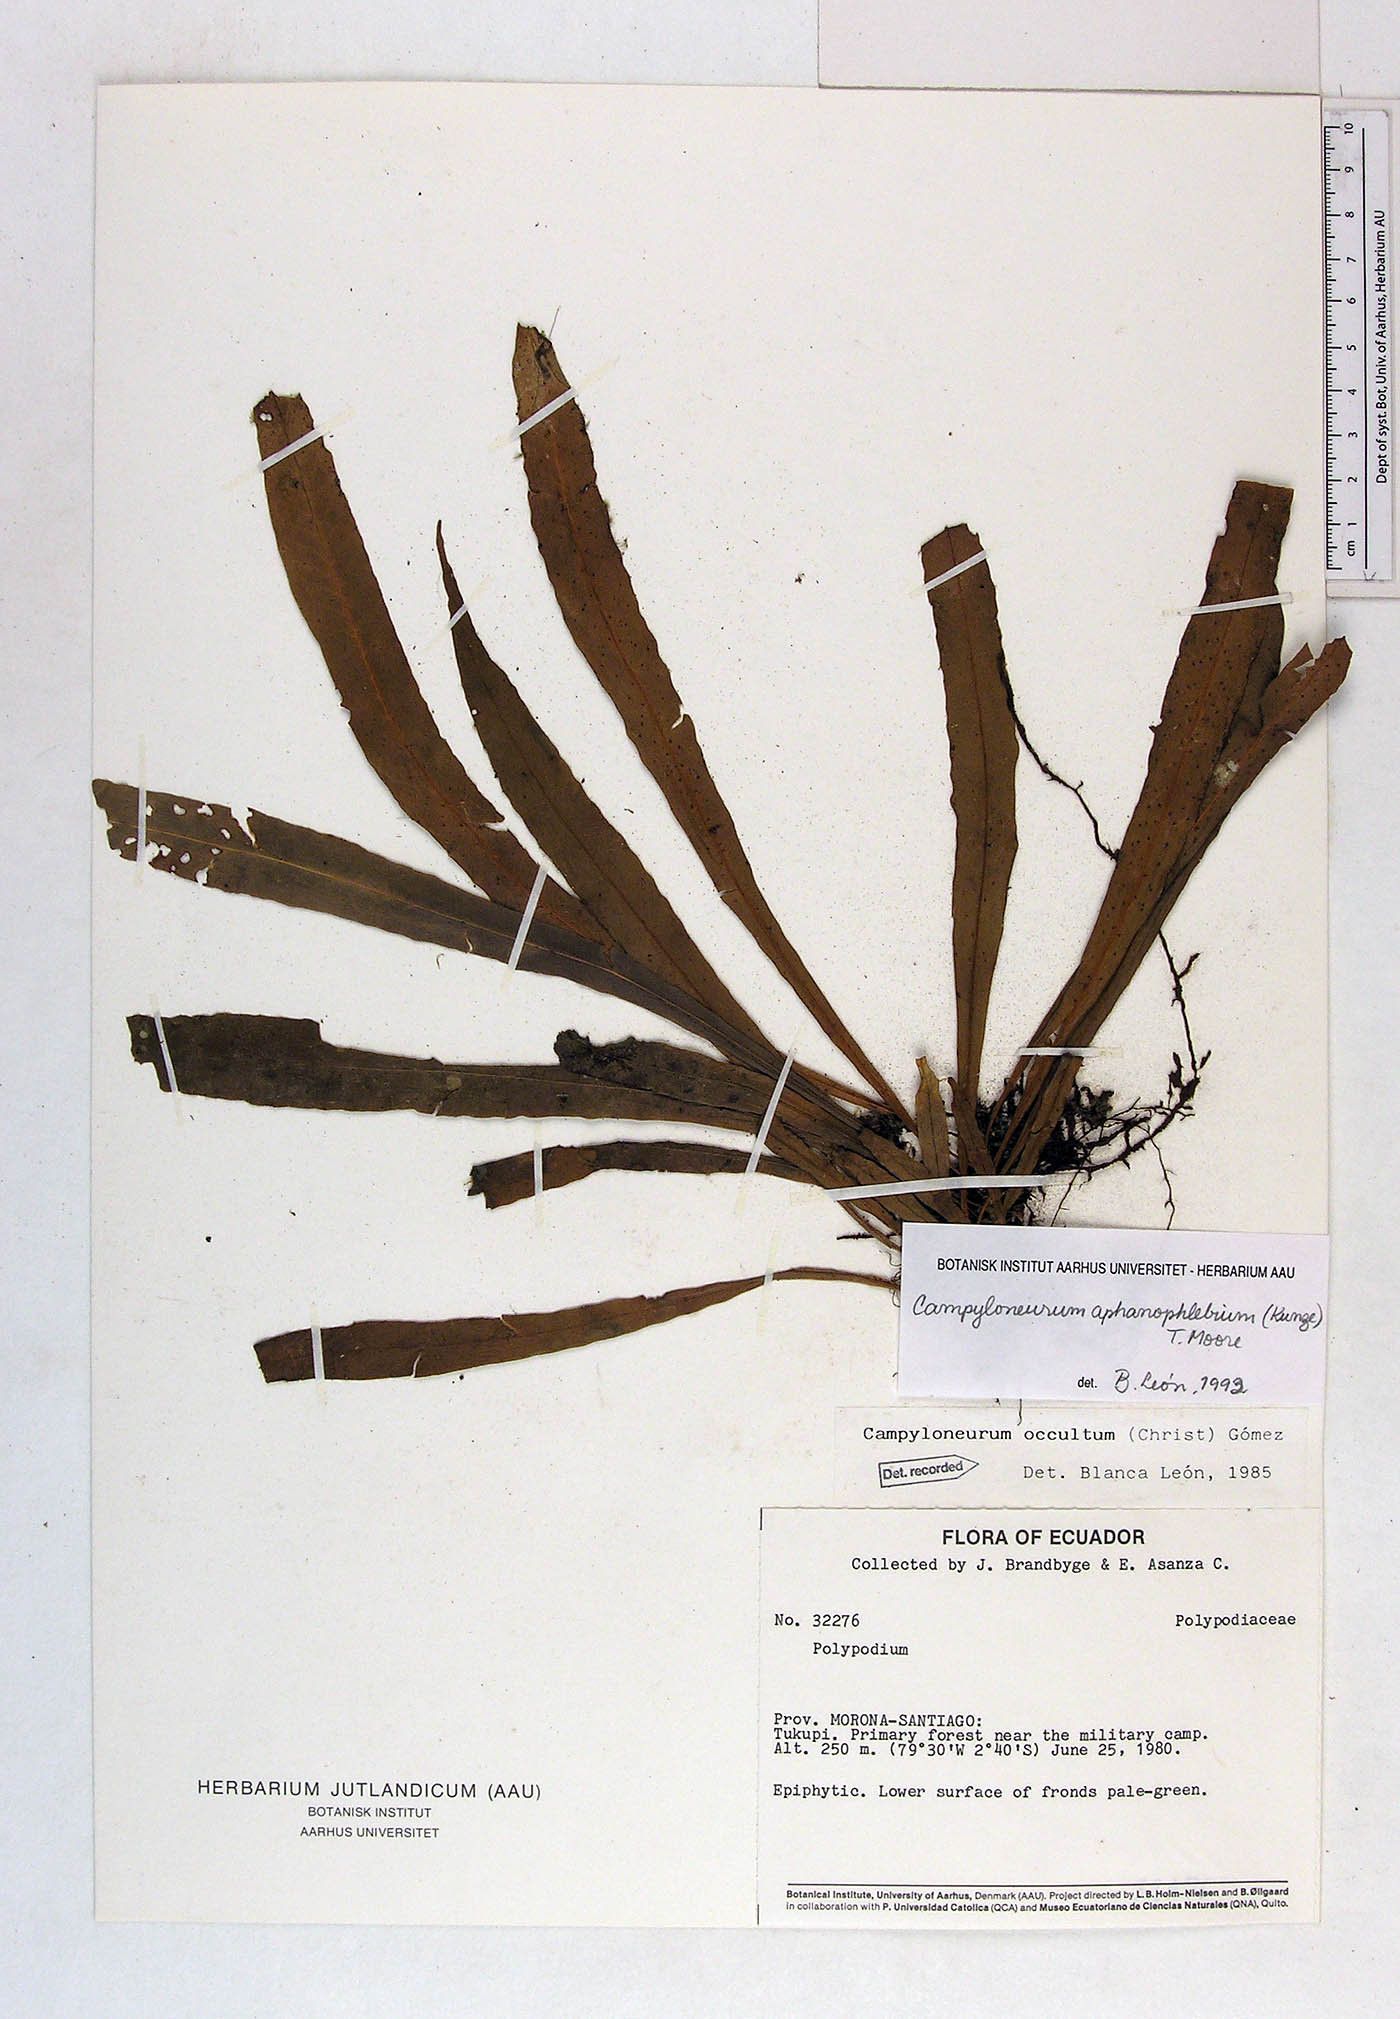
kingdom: Plantae
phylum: Tracheophyta
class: Polypodiopsida
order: Polypodiales
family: Polypodiaceae
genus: Campyloneurum
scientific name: Campyloneurum aphanophlebium
